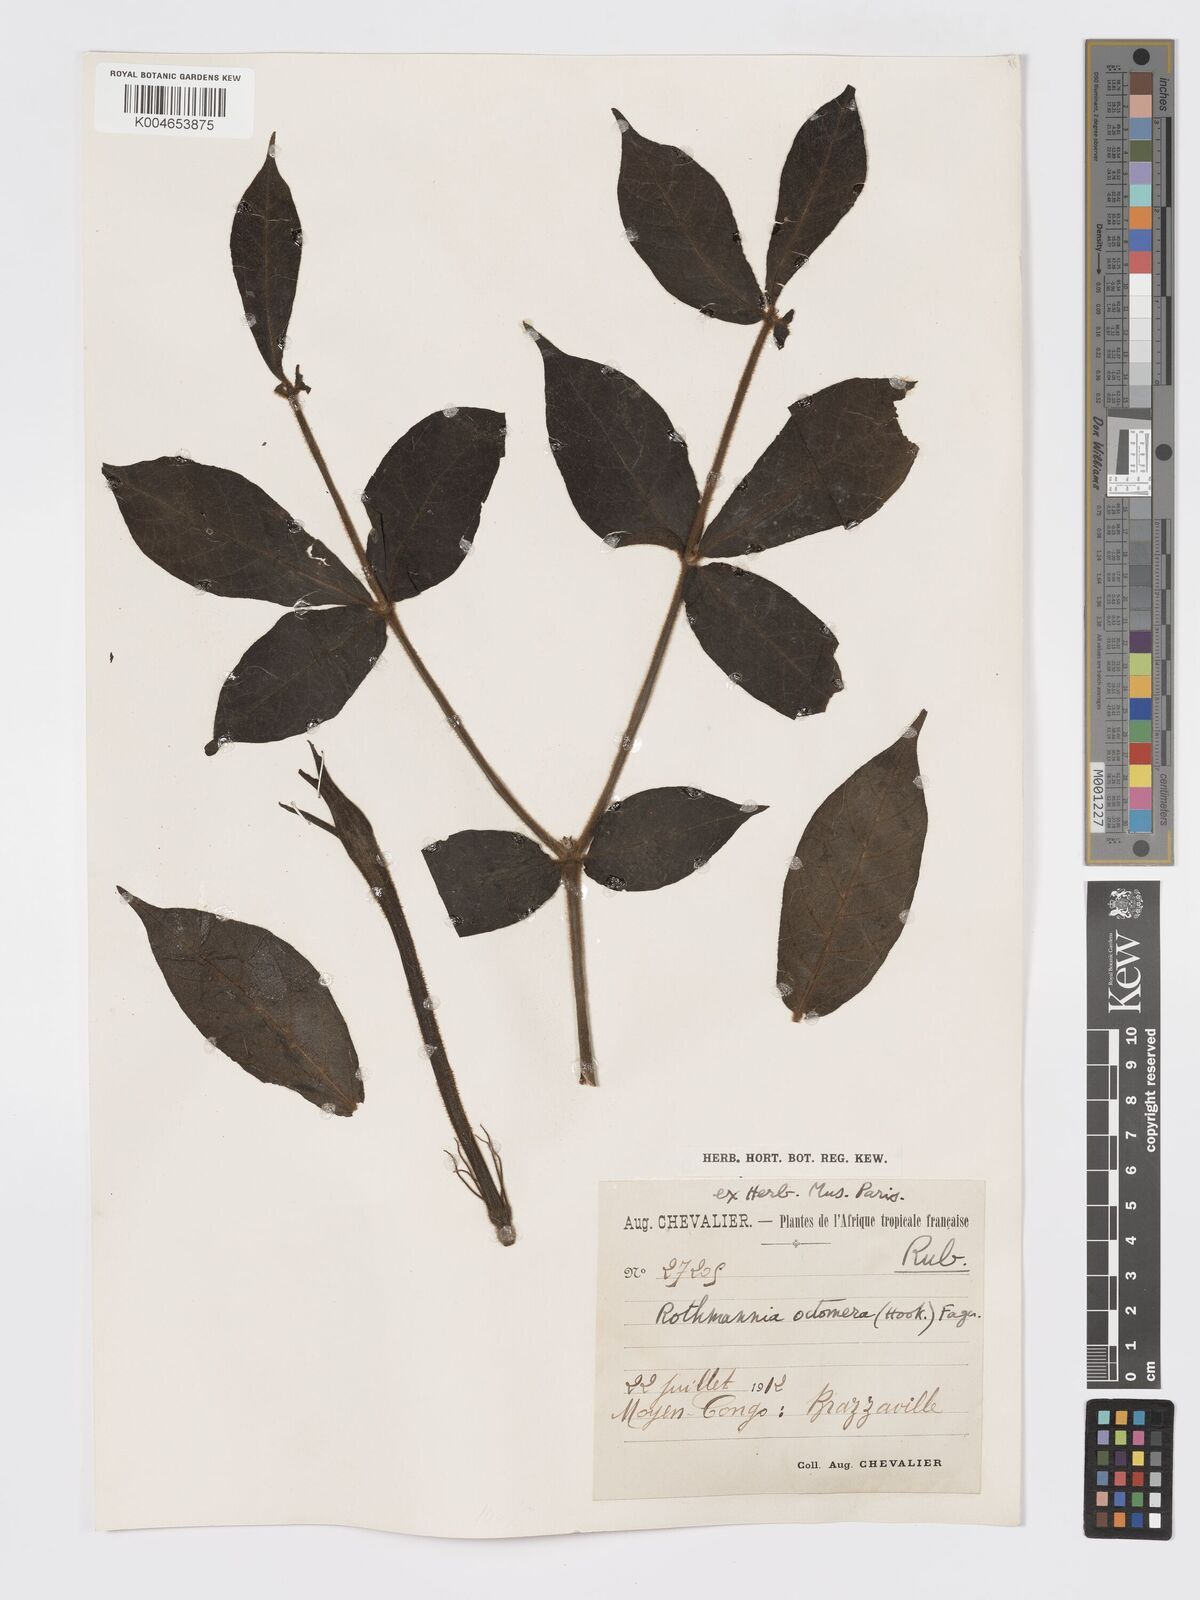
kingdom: Plantae
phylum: Tracheophyta
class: Magnoliopsida
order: Gentianales
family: Rubiaceae
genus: Rothmannia
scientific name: Rothmannia octomera
